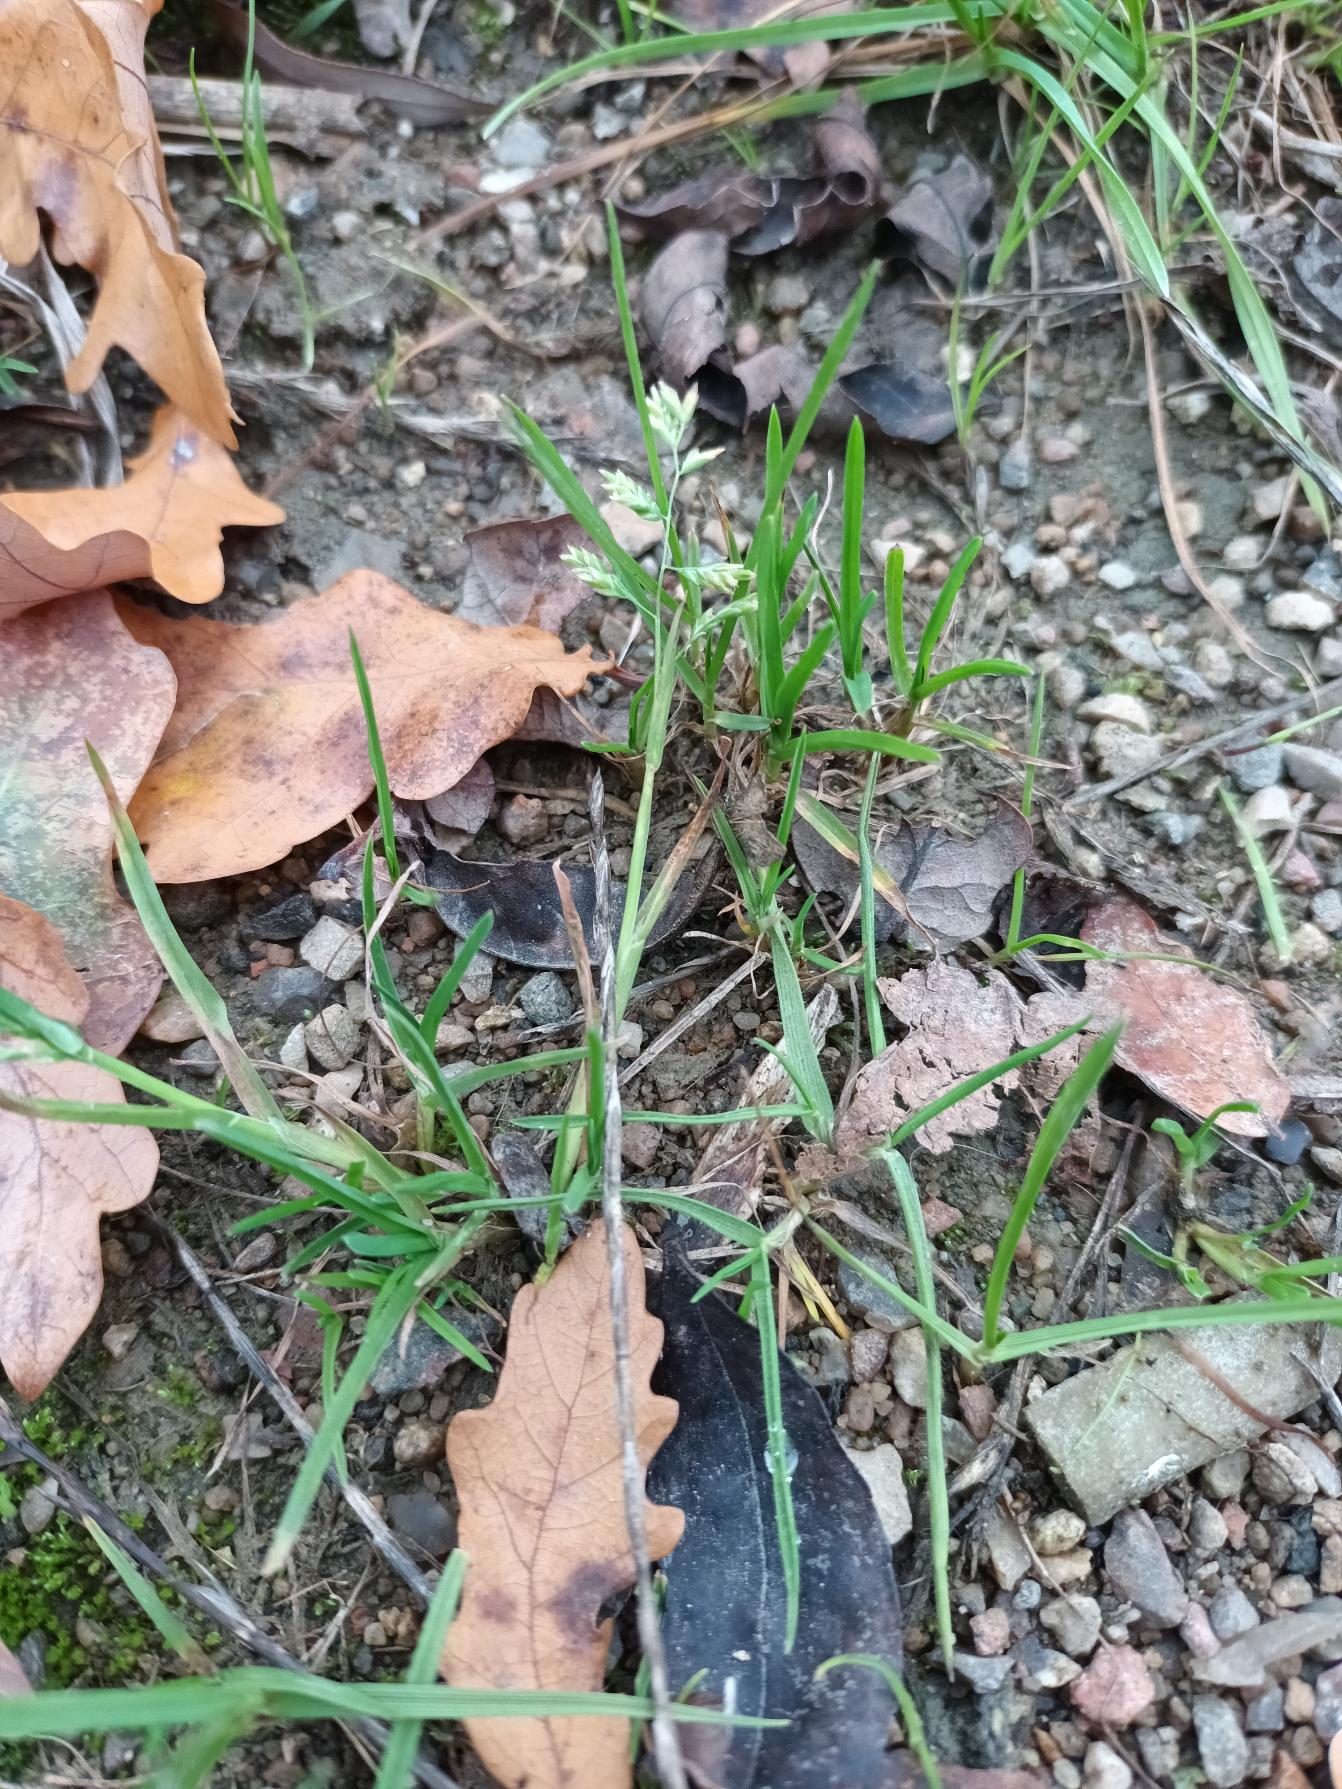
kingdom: Plantae
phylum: Tracheophyta
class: Liliopsida
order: Poales
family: Poaceae
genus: Poa
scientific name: Poa annua
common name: Enårig rapgræs
